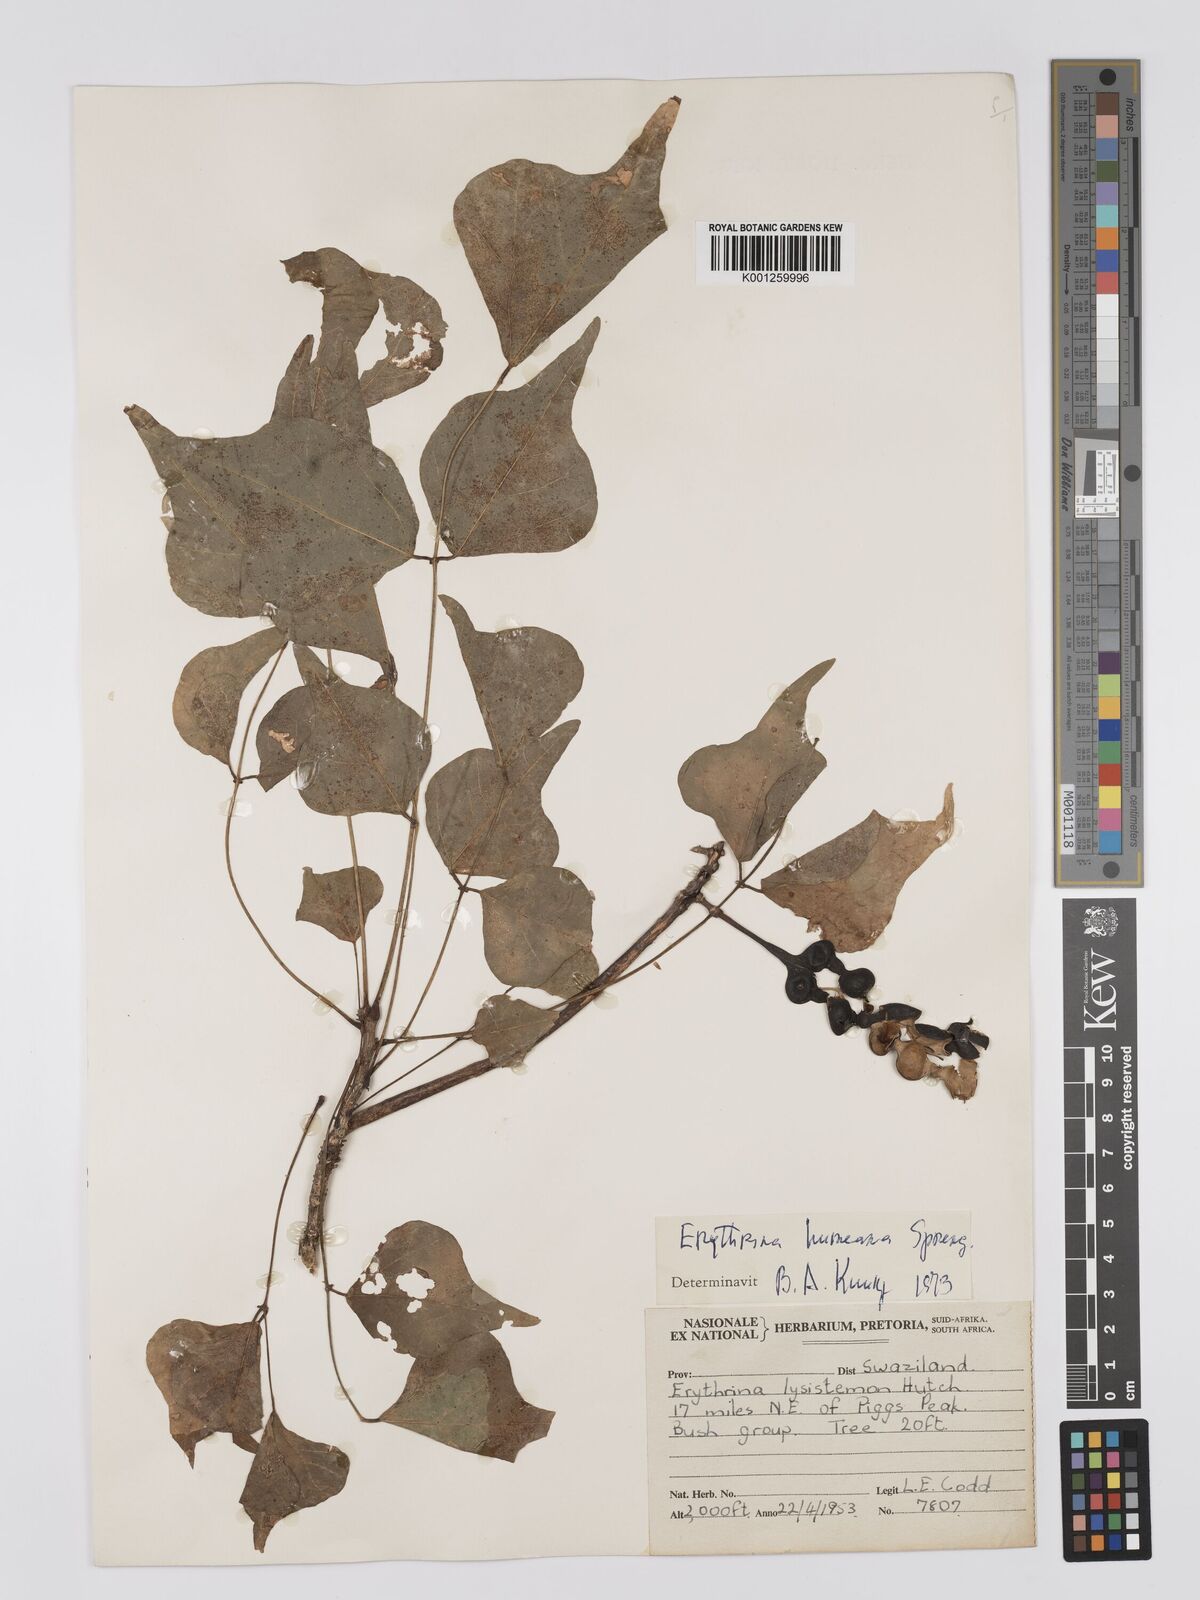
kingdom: Plantae
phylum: Tracheophyta
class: Magnoliopsida
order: Fabales
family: Fabaceae
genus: Erythrina
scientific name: Erythrina humeana
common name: Dwarf coral tree
